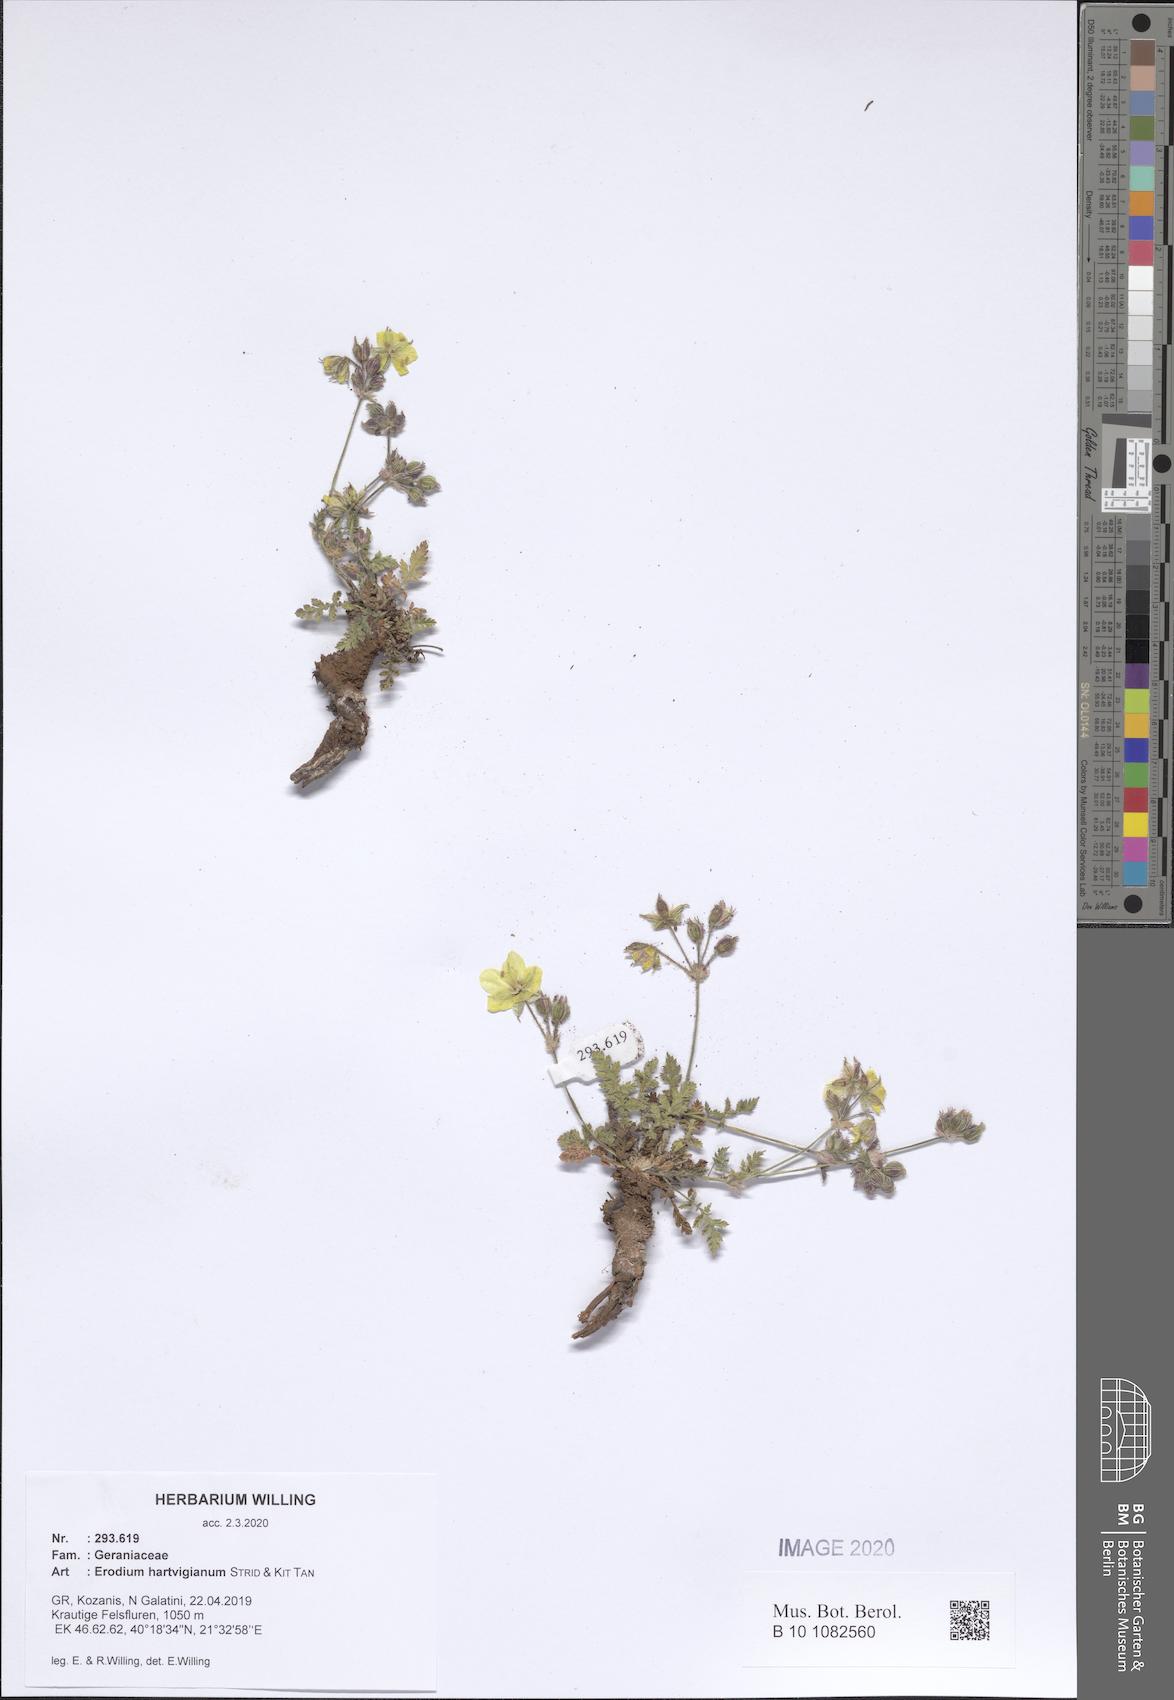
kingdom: Plantae
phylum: Tracheophyta
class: Magnoliopsida
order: Geraniales
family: Geraniaceae
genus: Erodium
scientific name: Erodium hartvigianum
